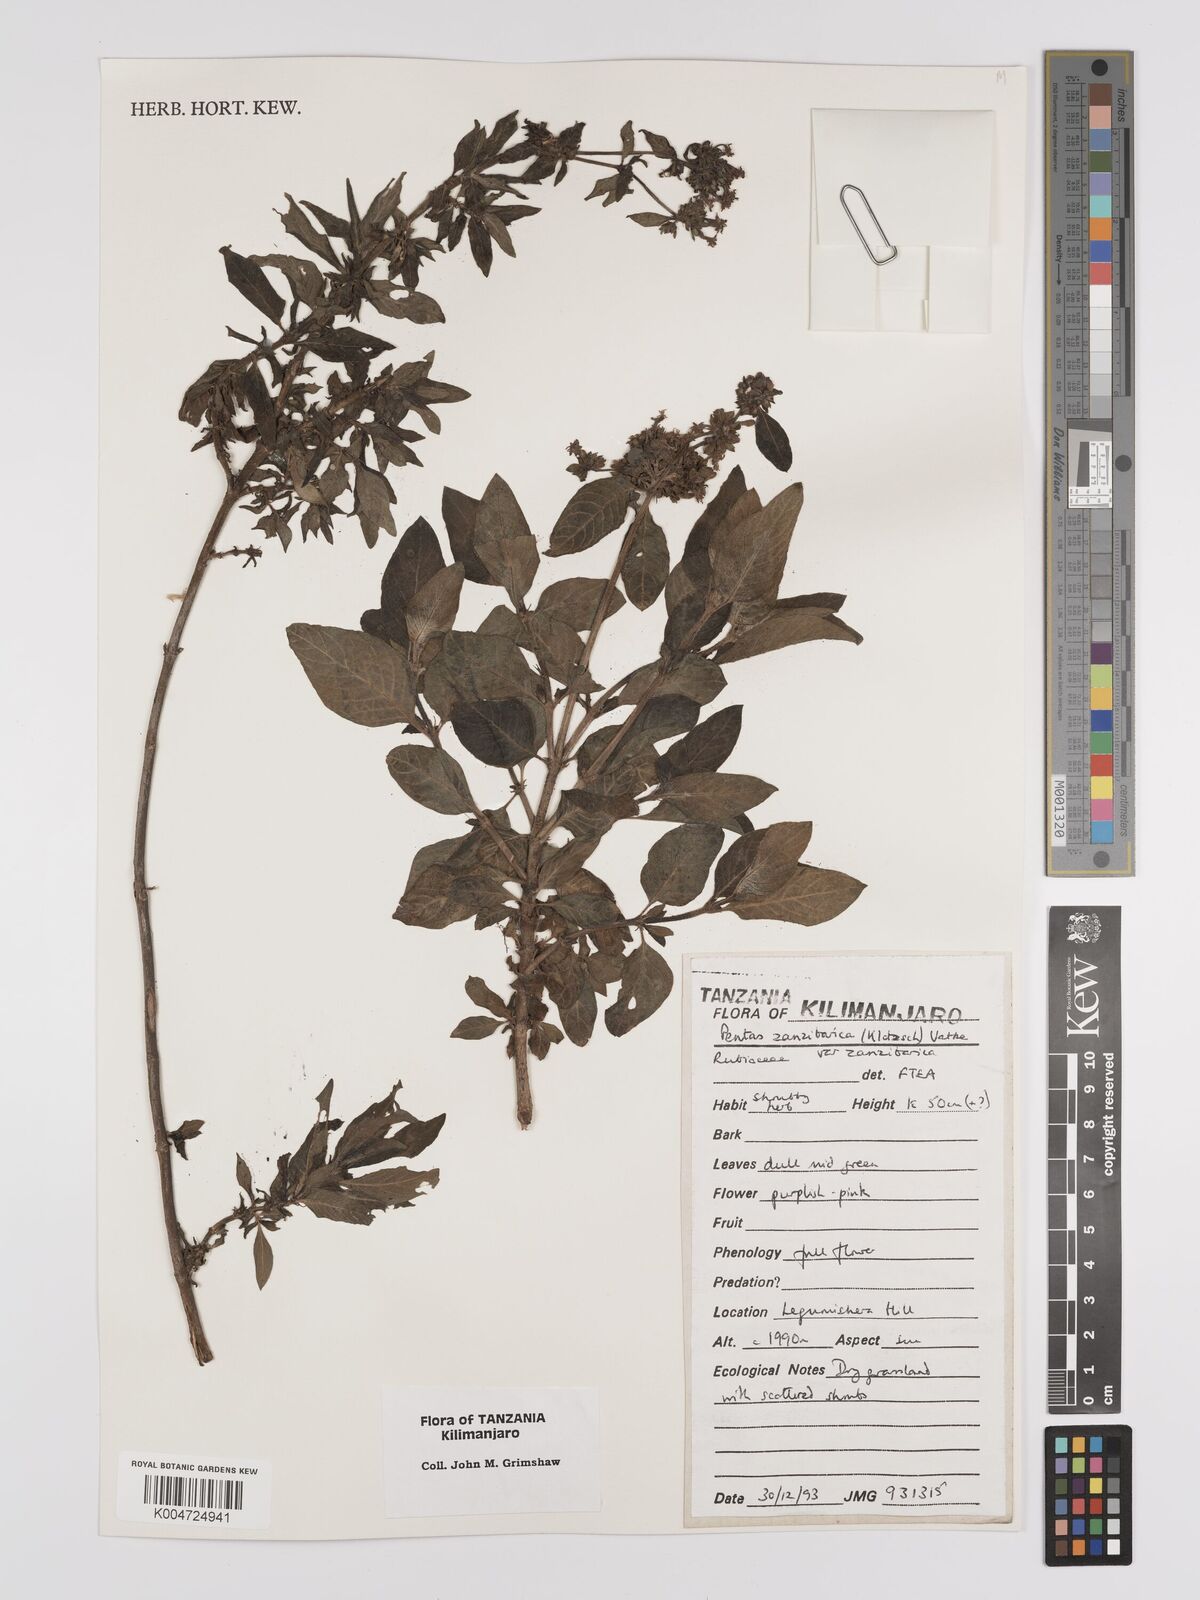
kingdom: Plantae
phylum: Tracheophyta
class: Magnoliopsida
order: Gentianales
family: Rubiaceae
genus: Pentas
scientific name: Pentas zanzibarica
